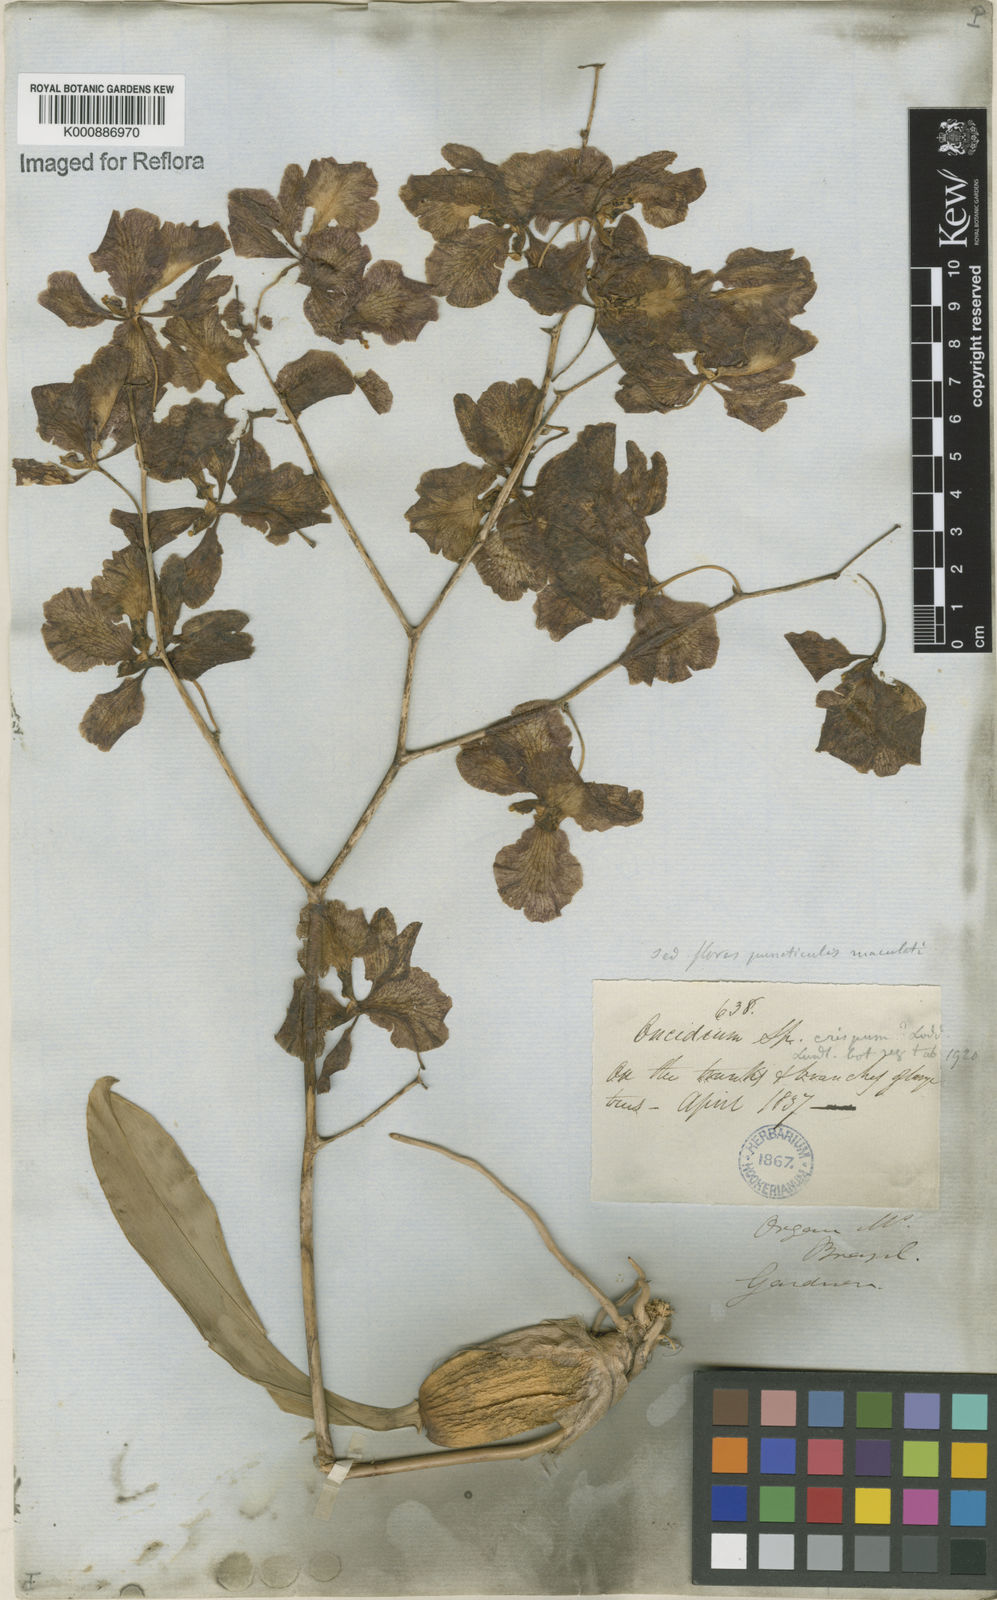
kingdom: Plantae
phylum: Tracheophyta
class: Liliopsida
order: Asparagales
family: Orchidaceae
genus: Gomesa
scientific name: Gomesa imperatoris-maximiliani
